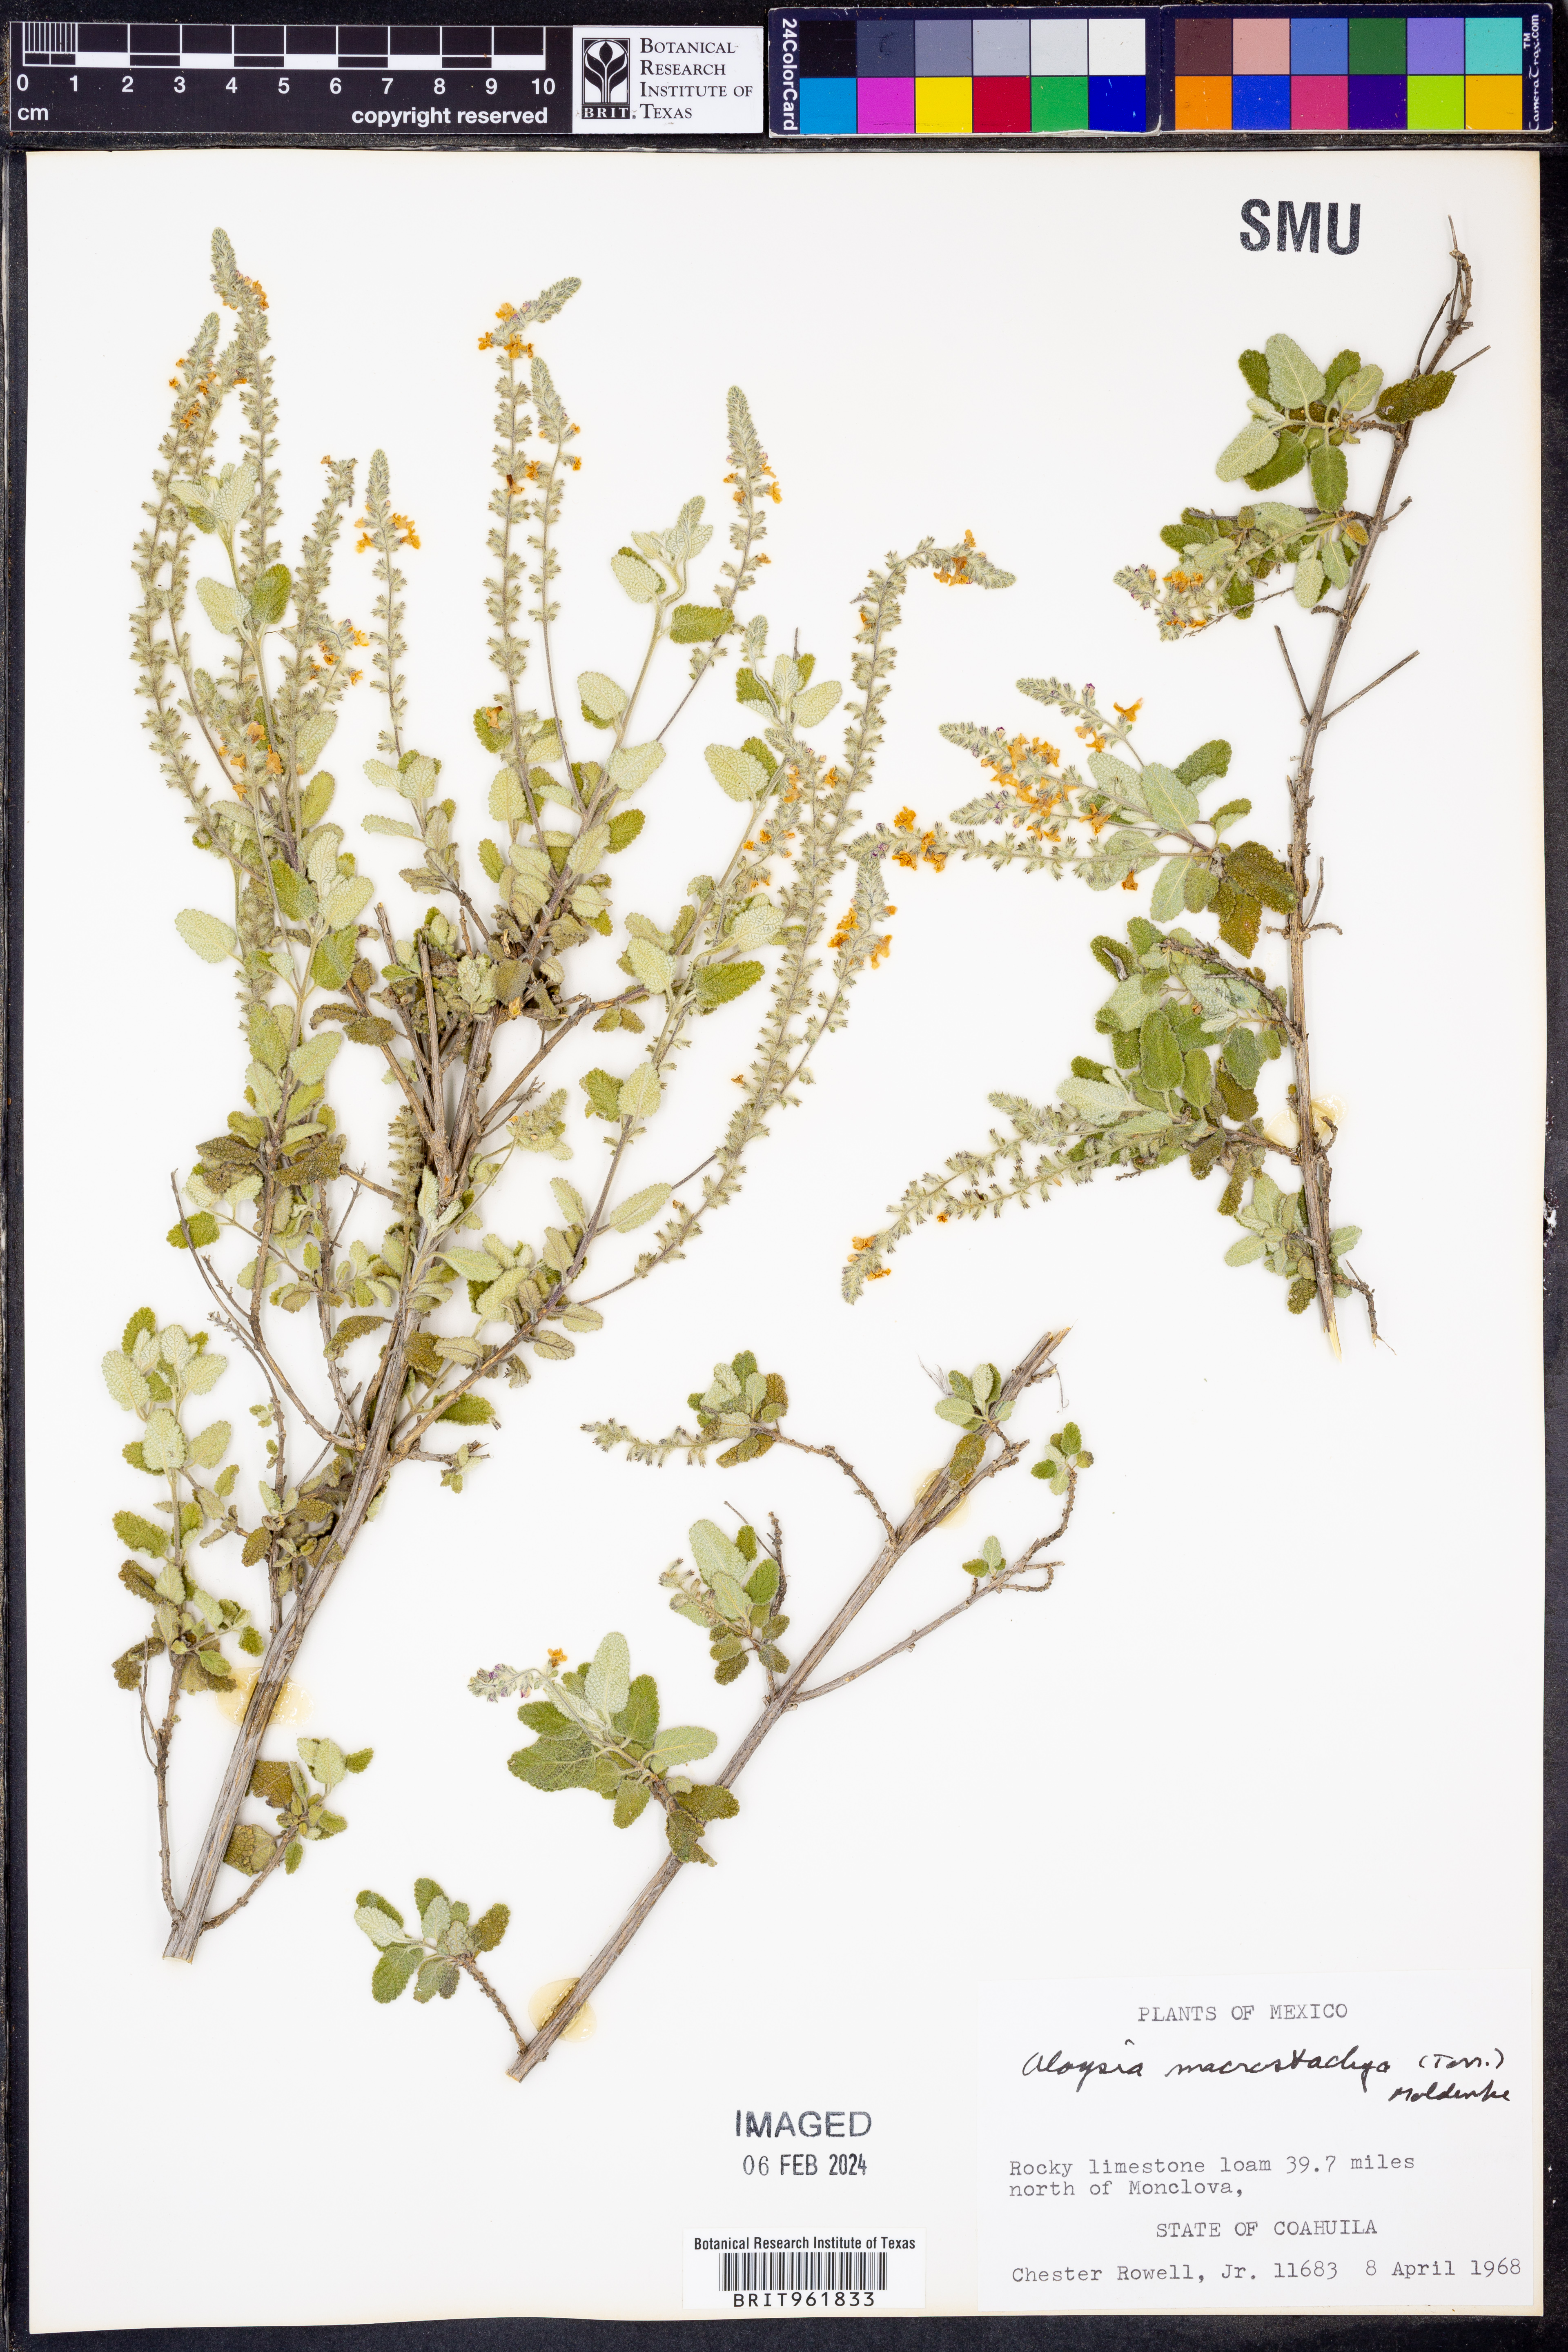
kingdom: Plantae
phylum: Tracheophyta
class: Magnoliopsida
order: Lamiales
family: Verbenaceae
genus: Aloysia
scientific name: Aloysia
